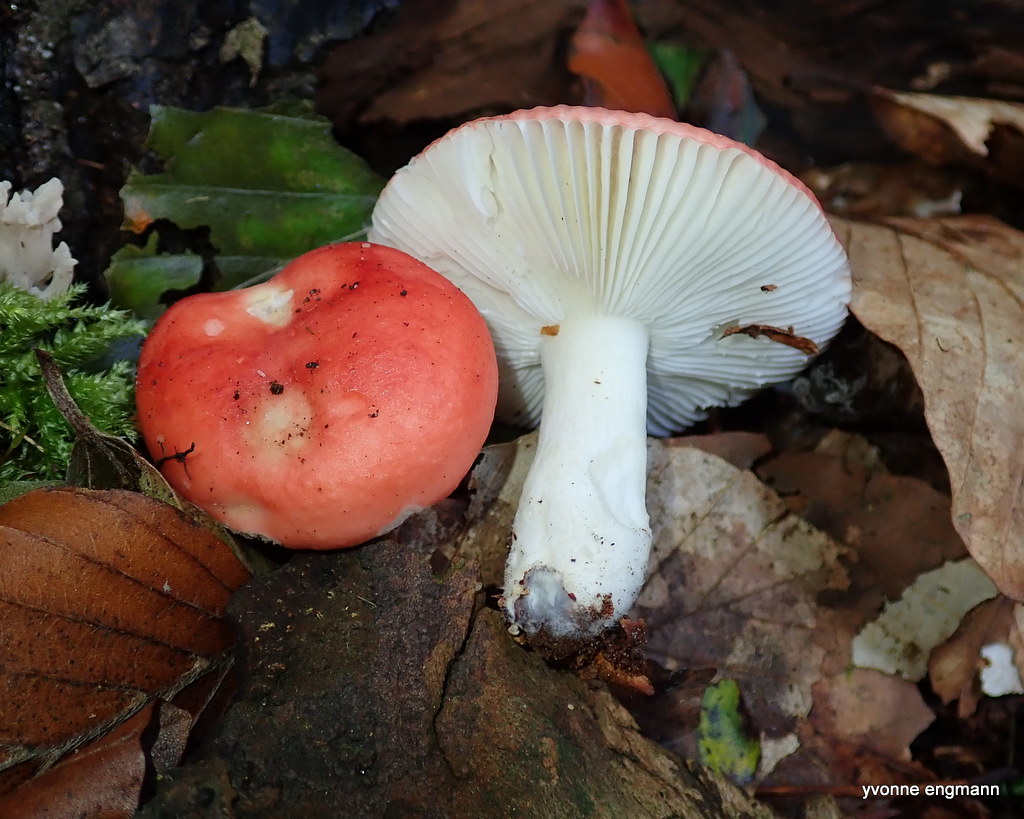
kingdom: Fungi
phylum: Basidiomycota
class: Agaricomycetes
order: Russulales
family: Russulaceae
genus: Russula
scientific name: Russula
